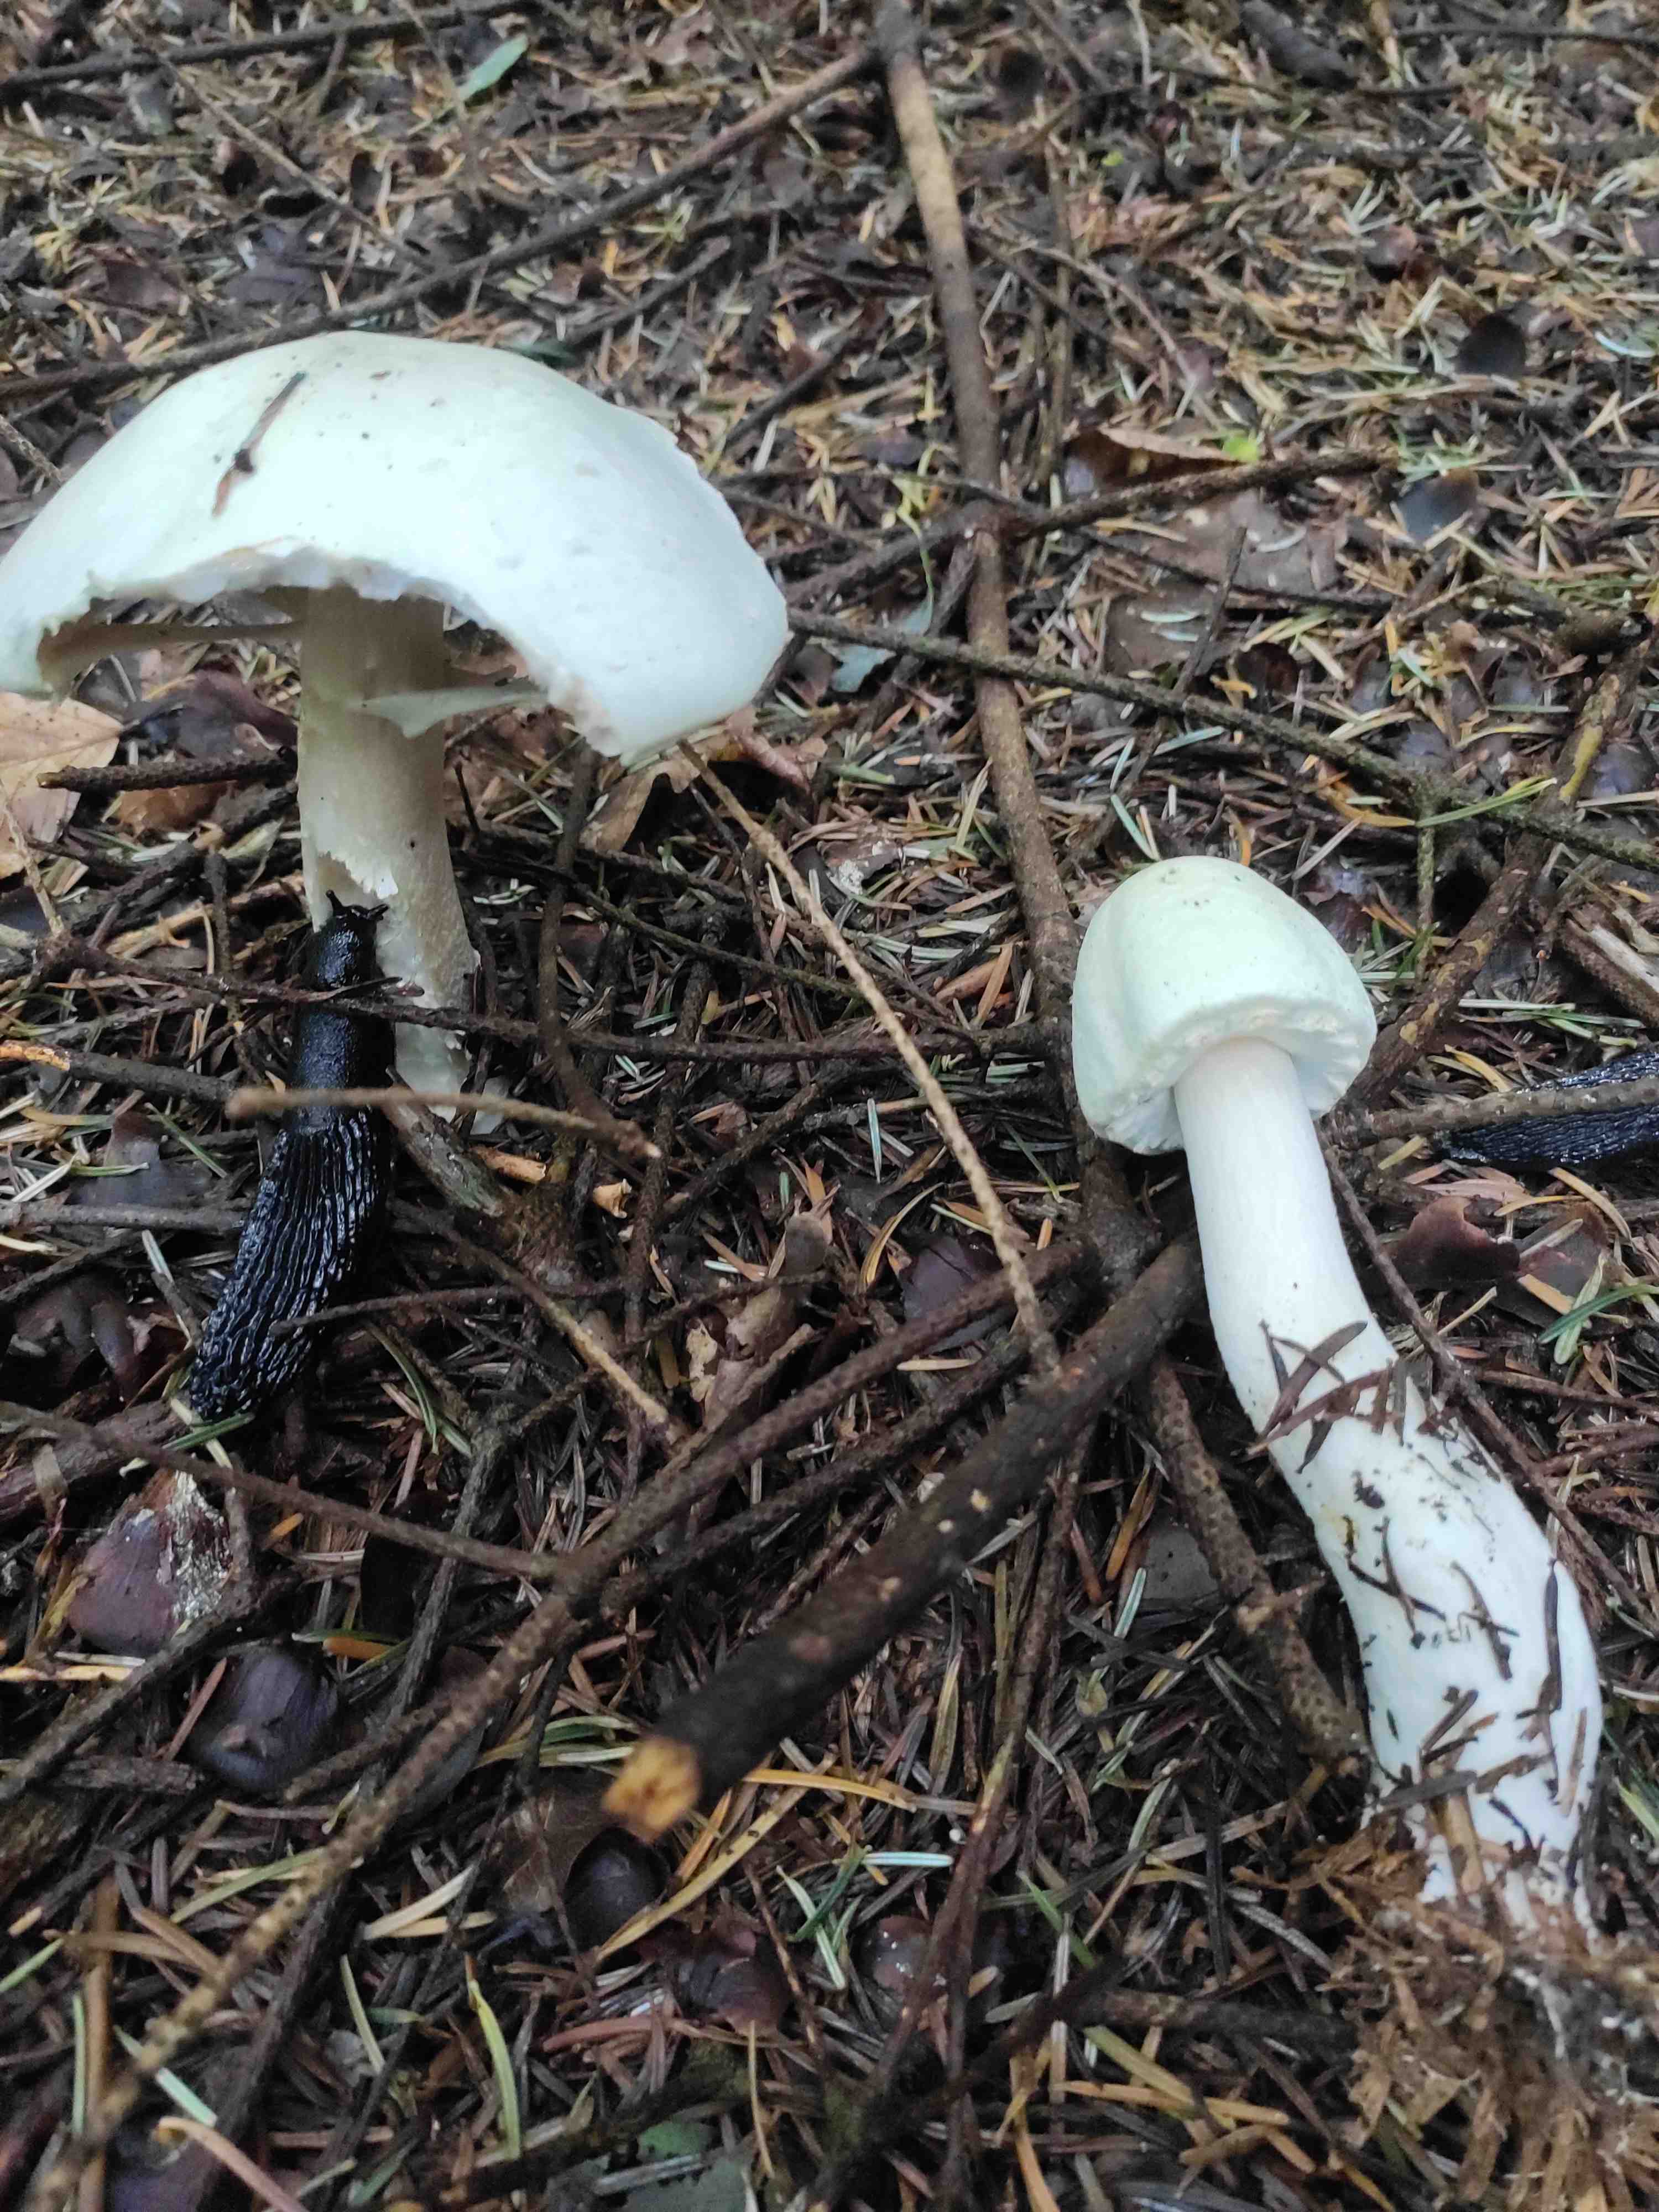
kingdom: Fungi
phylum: Basidiomycota
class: Agaricomycetes
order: Agaricales
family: Agaricaceae
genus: Agaricus
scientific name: Agaricus sylvicola
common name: gulhvid champignon
